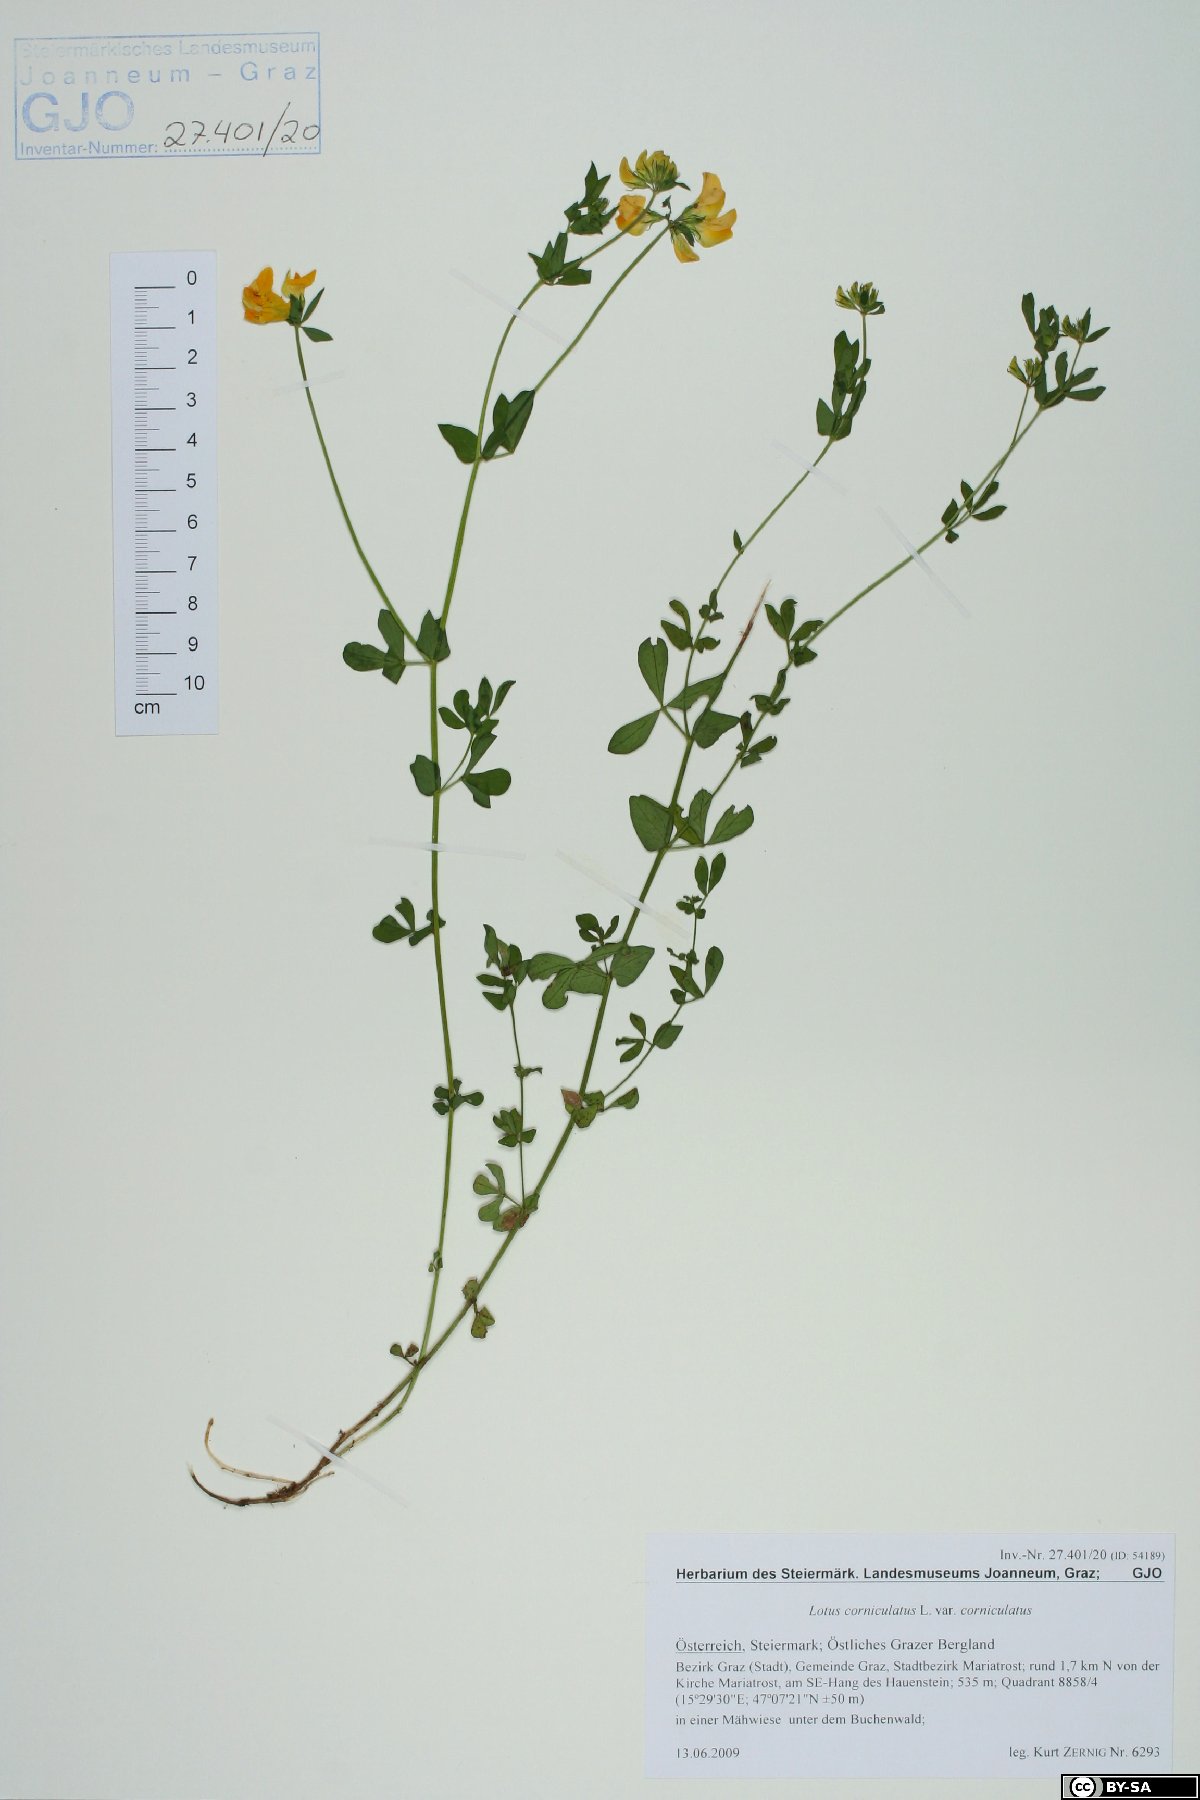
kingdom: Plantae
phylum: Tracheophyta
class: Magnoliopsida
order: Fabales
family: Fabaceae
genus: Lotus
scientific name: Lotus corniculatus
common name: Common bird's-foot-trefoil
